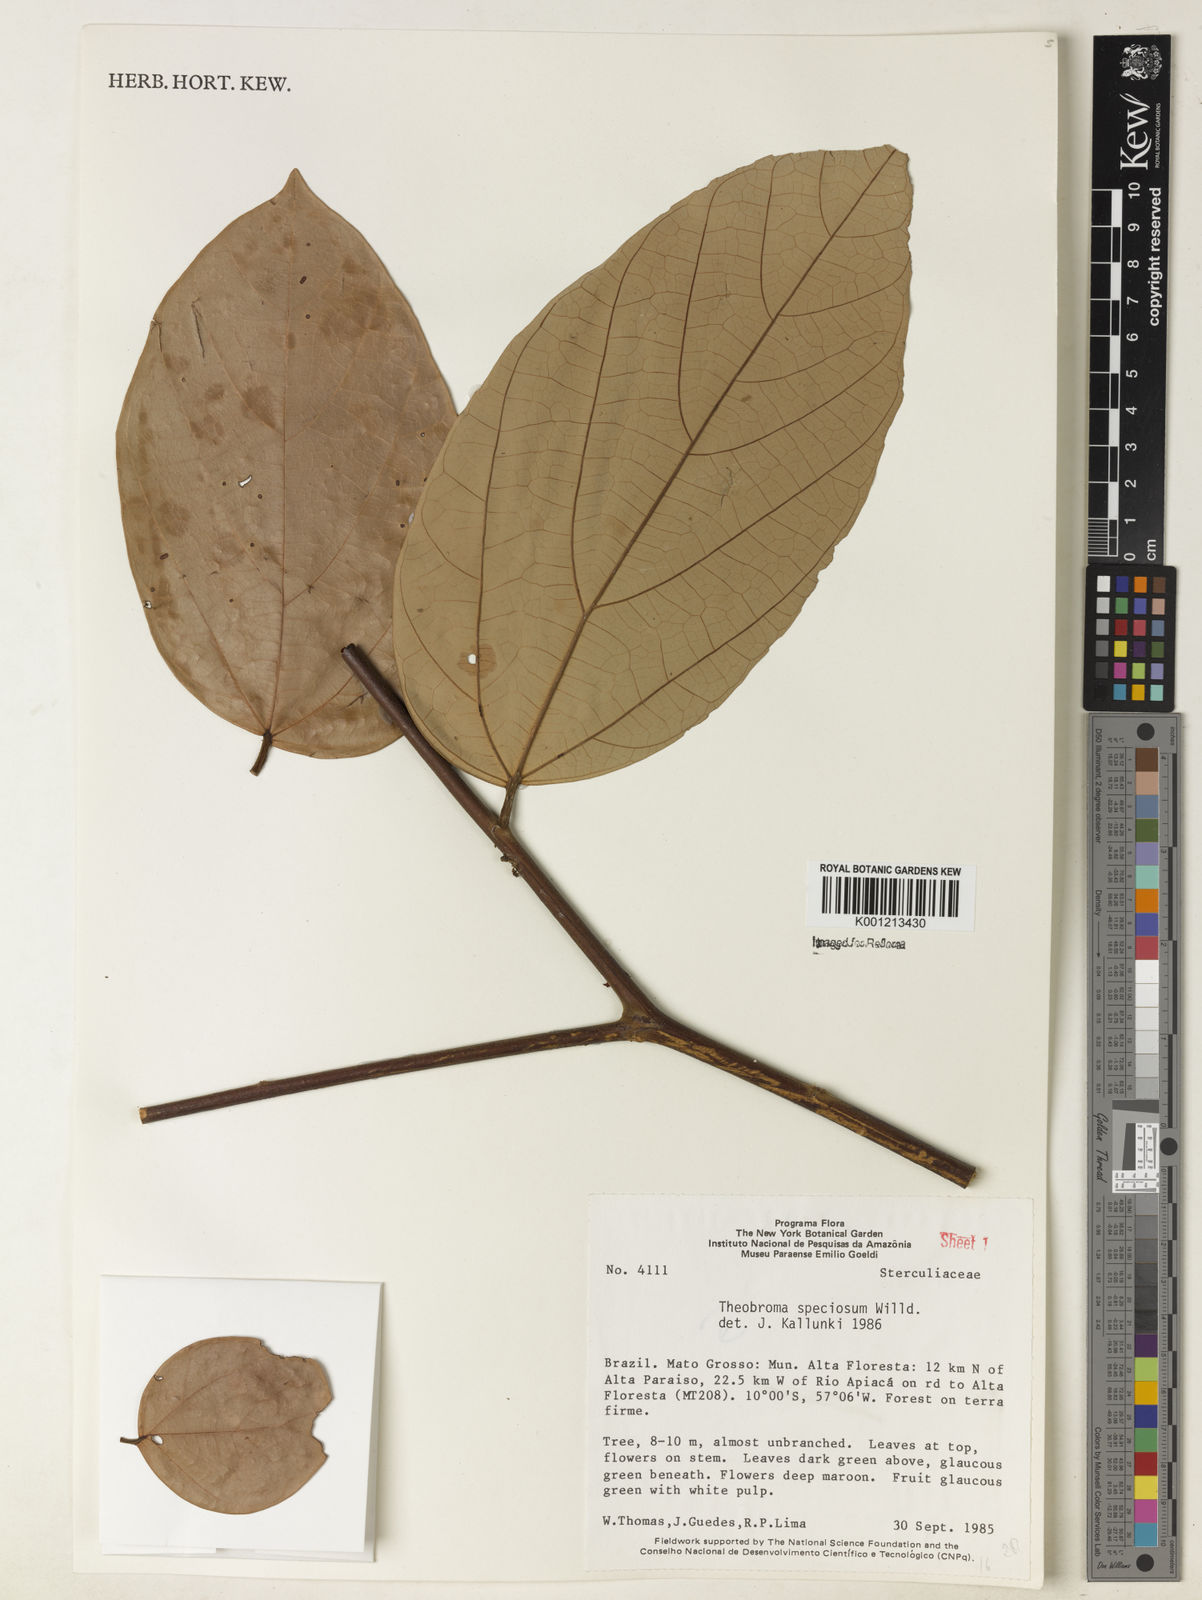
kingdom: Plantae
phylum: Tracheophyta
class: Magnoliopsida
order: Malvales
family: Malvaceae
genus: Theobroma
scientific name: Theobroma speciosum
